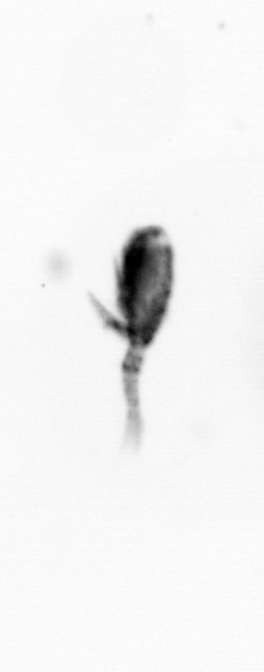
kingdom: Animalia
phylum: Arthropoda
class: Copepoda
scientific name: Copepoda
